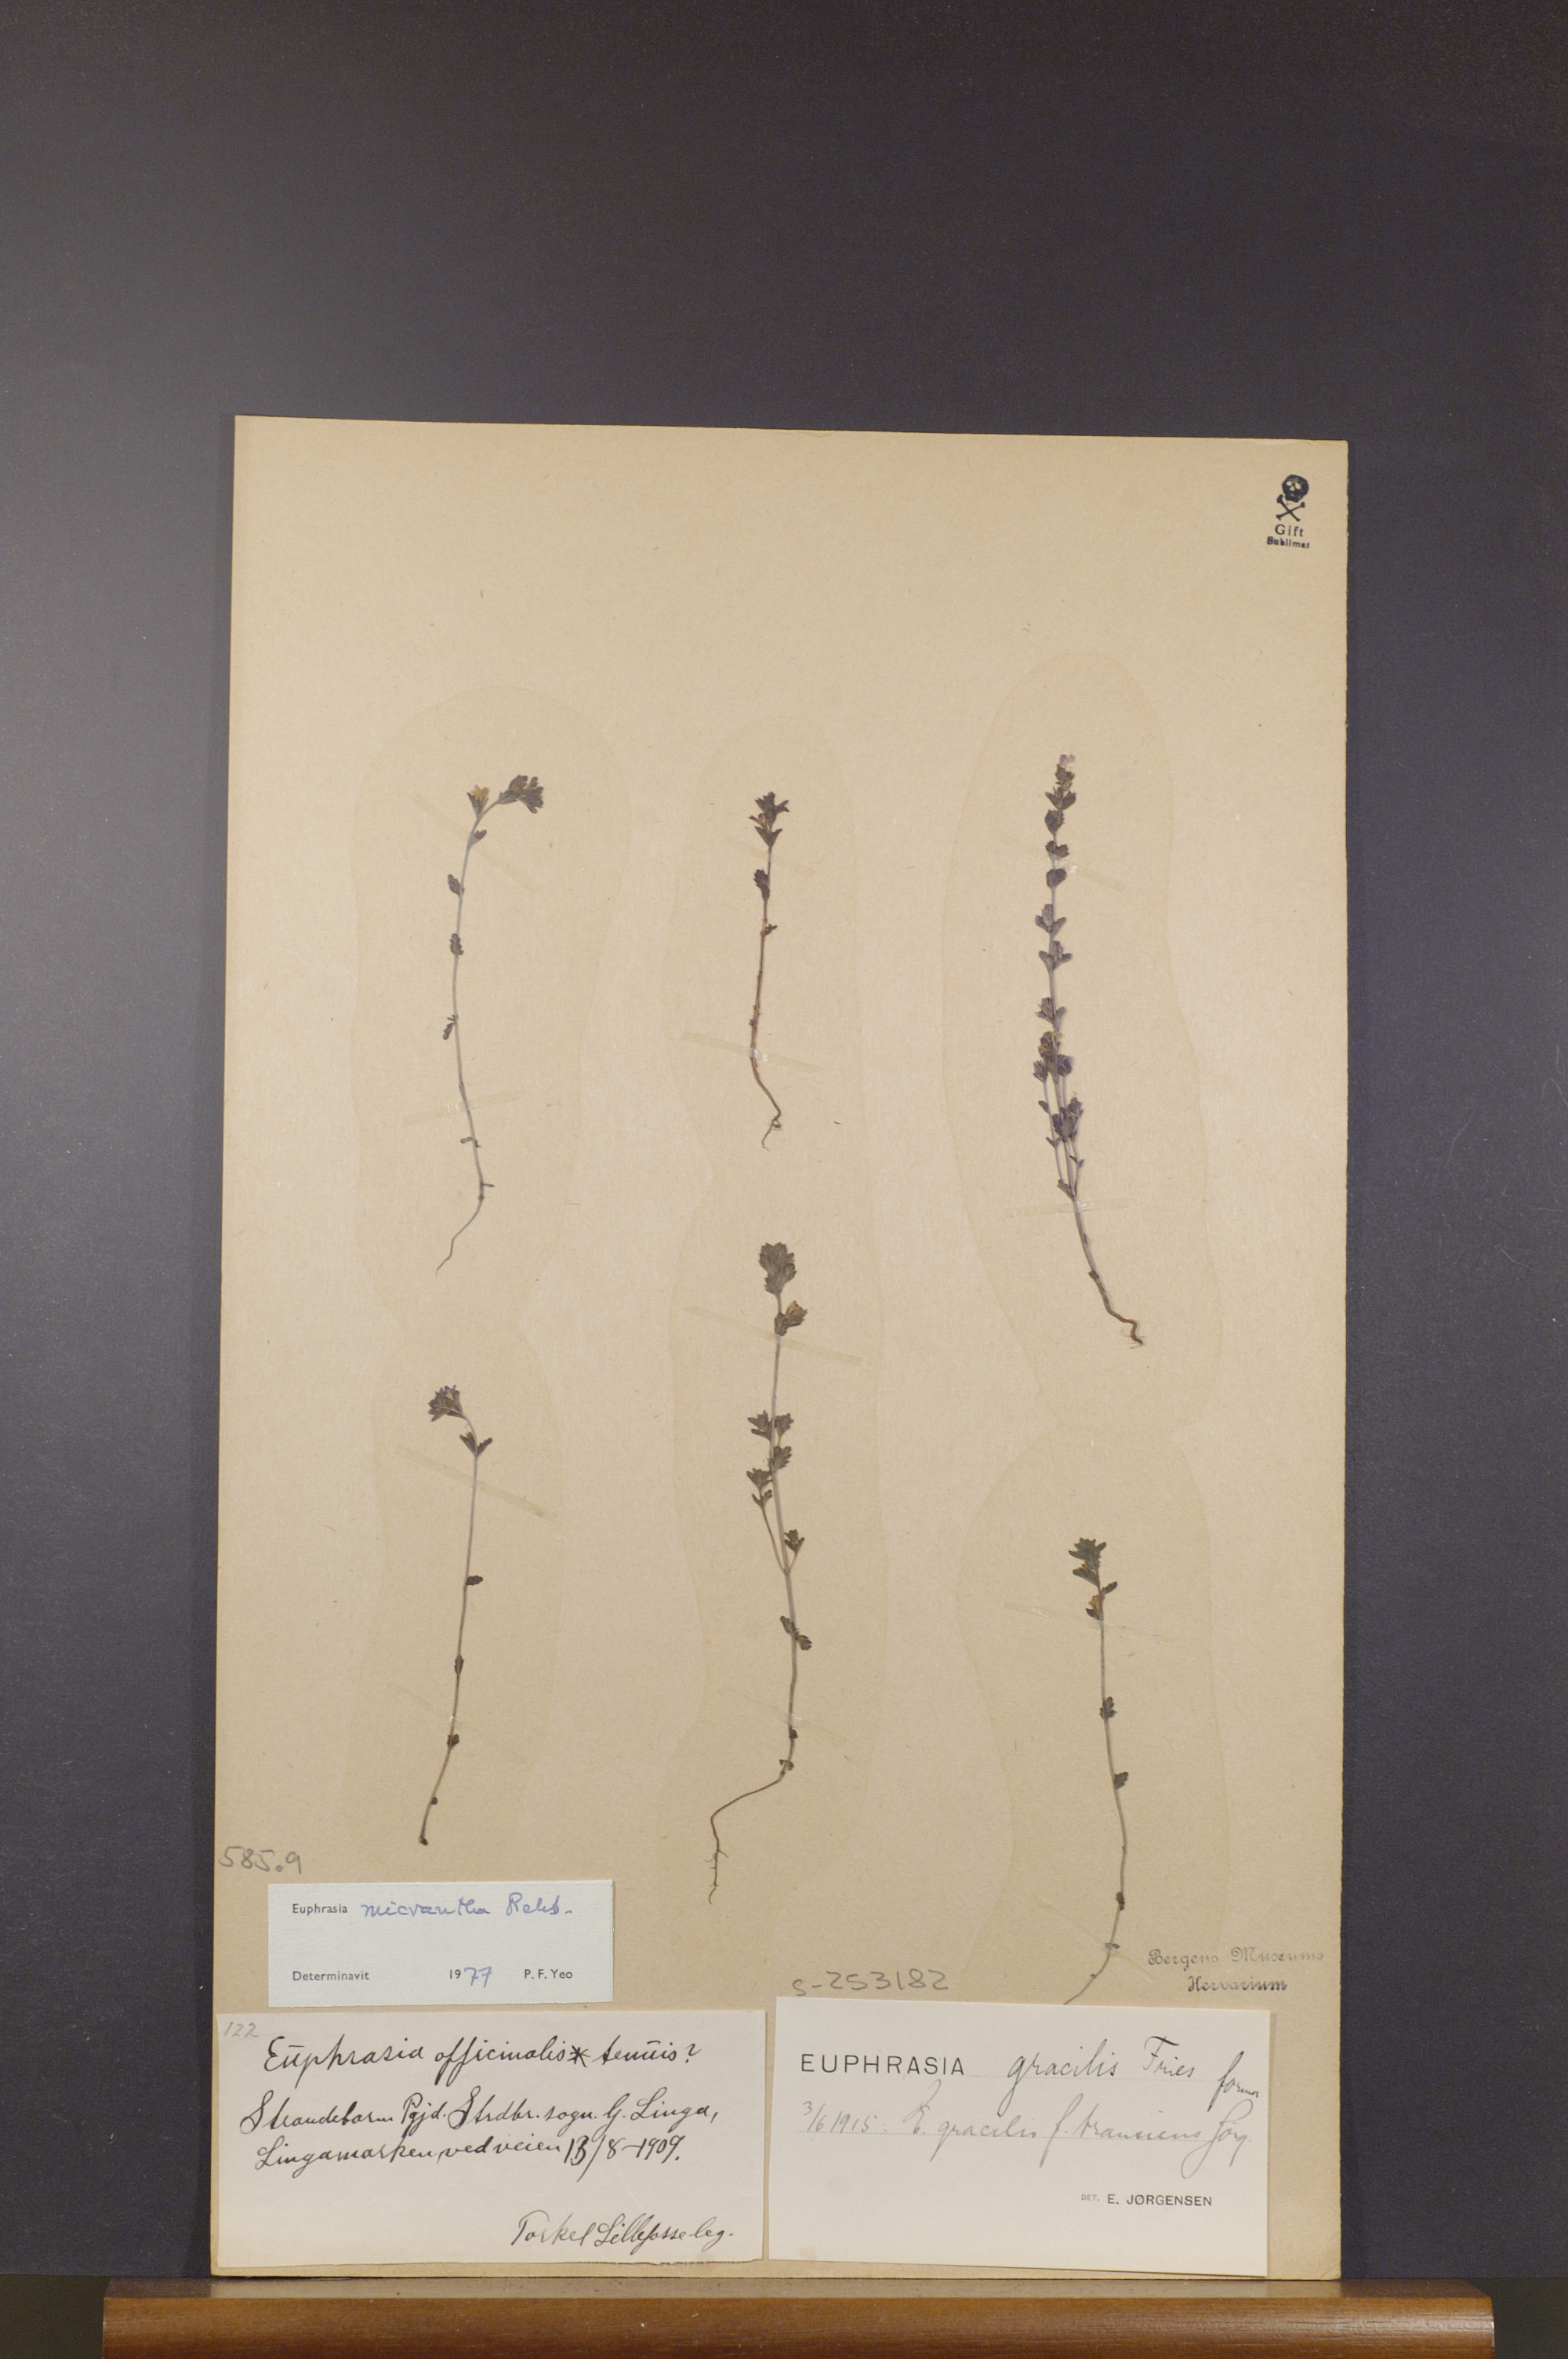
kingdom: Plantae
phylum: Tracheophyta
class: Magnoliopsida
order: Lamiales
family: Orobanchaceae
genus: Euphrasia
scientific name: Euphrasia micrantha
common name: Northern eyebright
